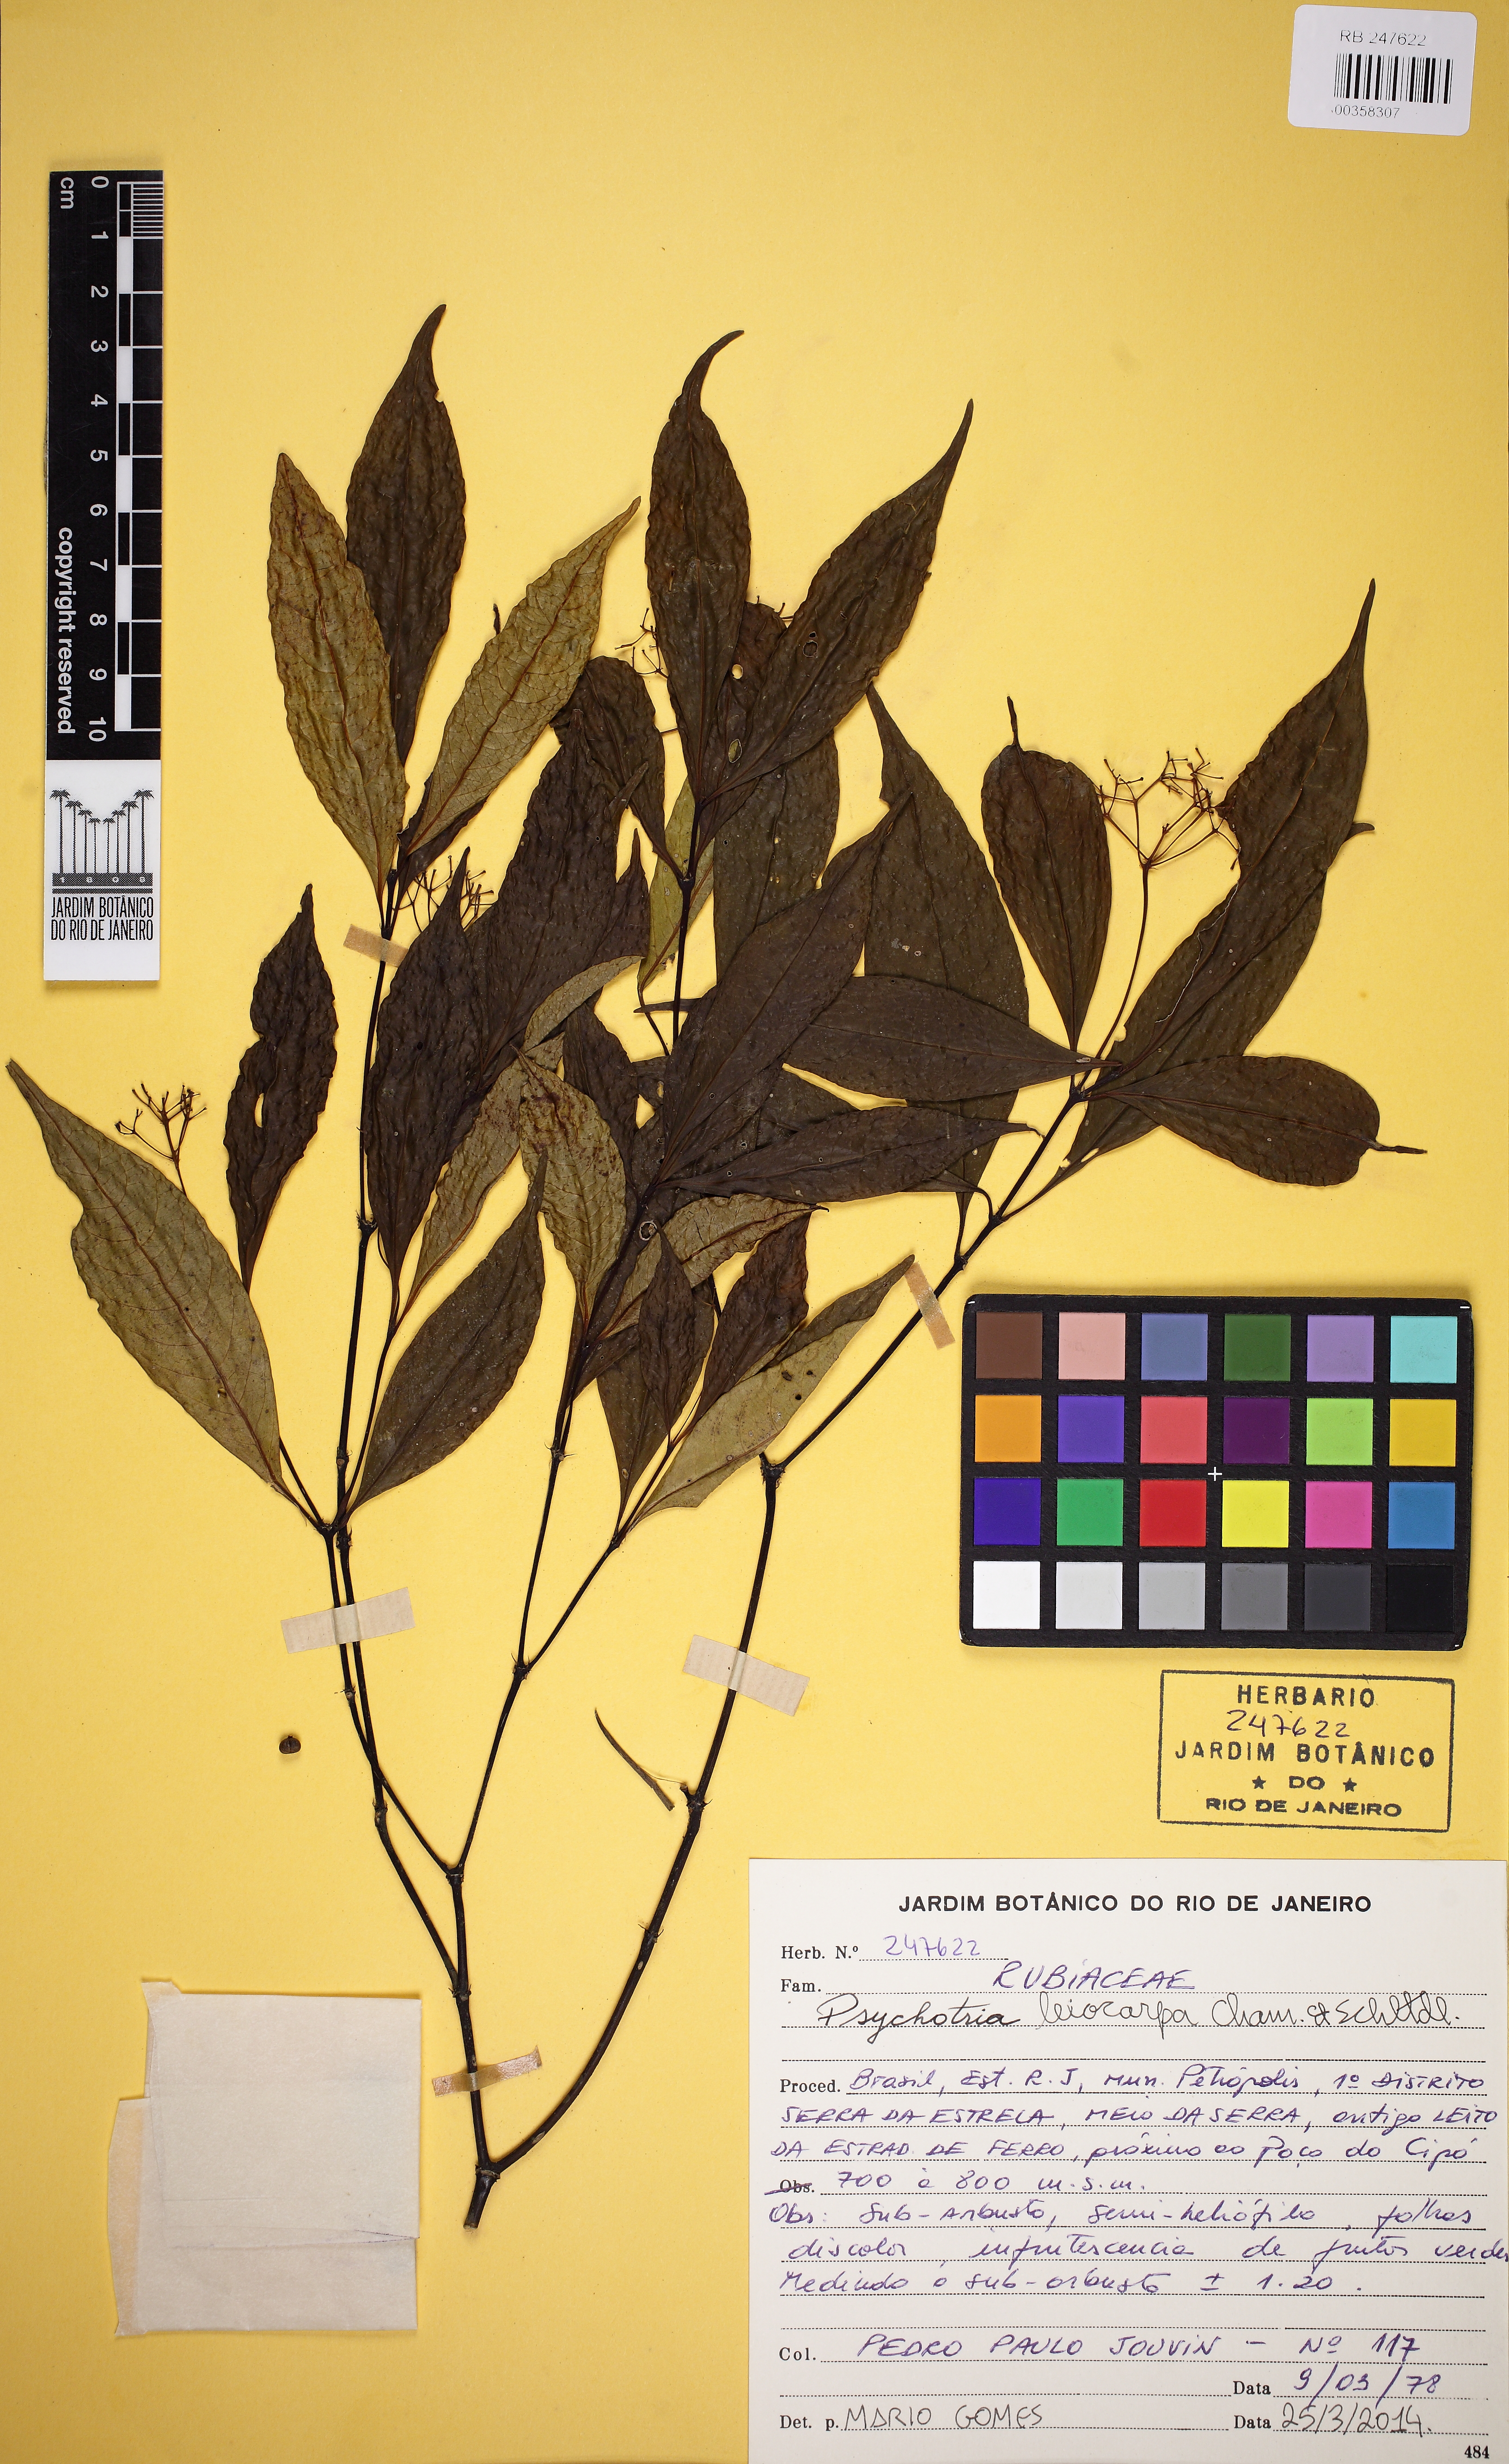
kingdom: Plantae
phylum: Tracheophyta
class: Magnoliopsida
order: Gentianales
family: Rubiaceae
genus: Psychotria
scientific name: Psychotria leiocarpa
